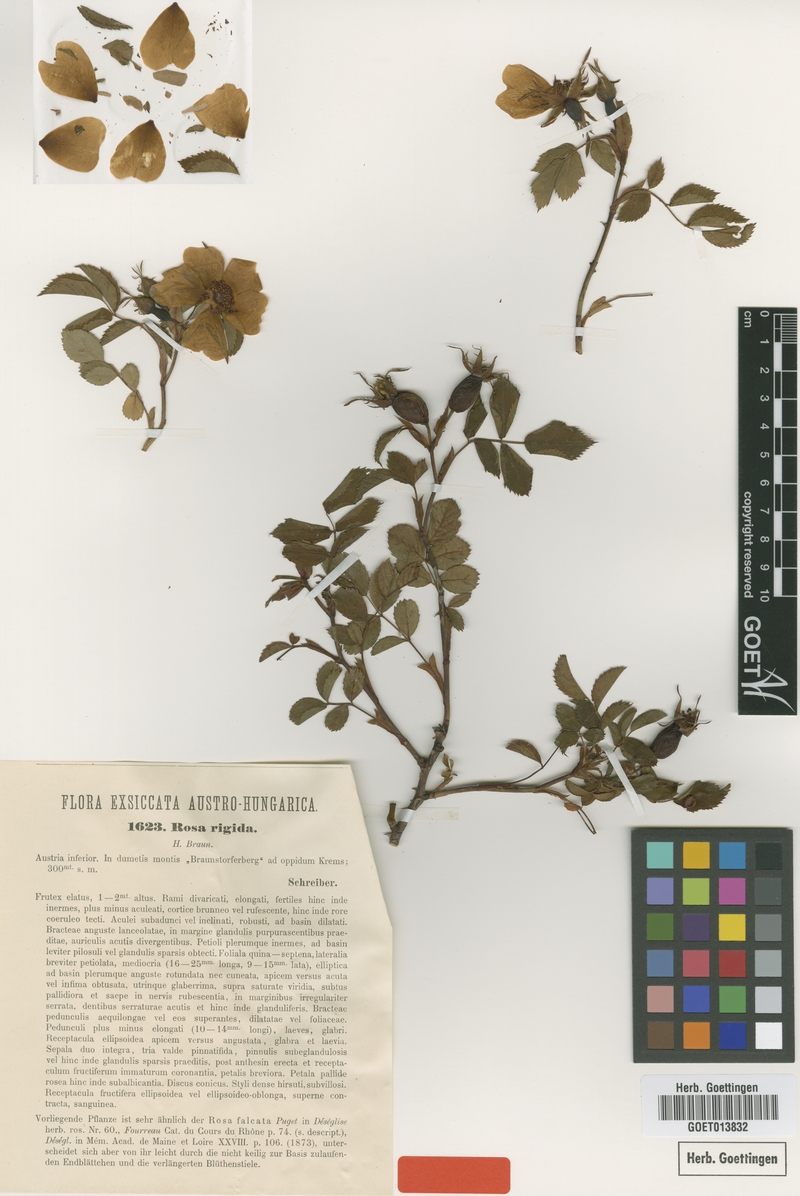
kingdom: Plantae
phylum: Tracheophyta
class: Magnoliopsida
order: Rosales
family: Rosaceae
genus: Rosa
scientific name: Rosa rigida
